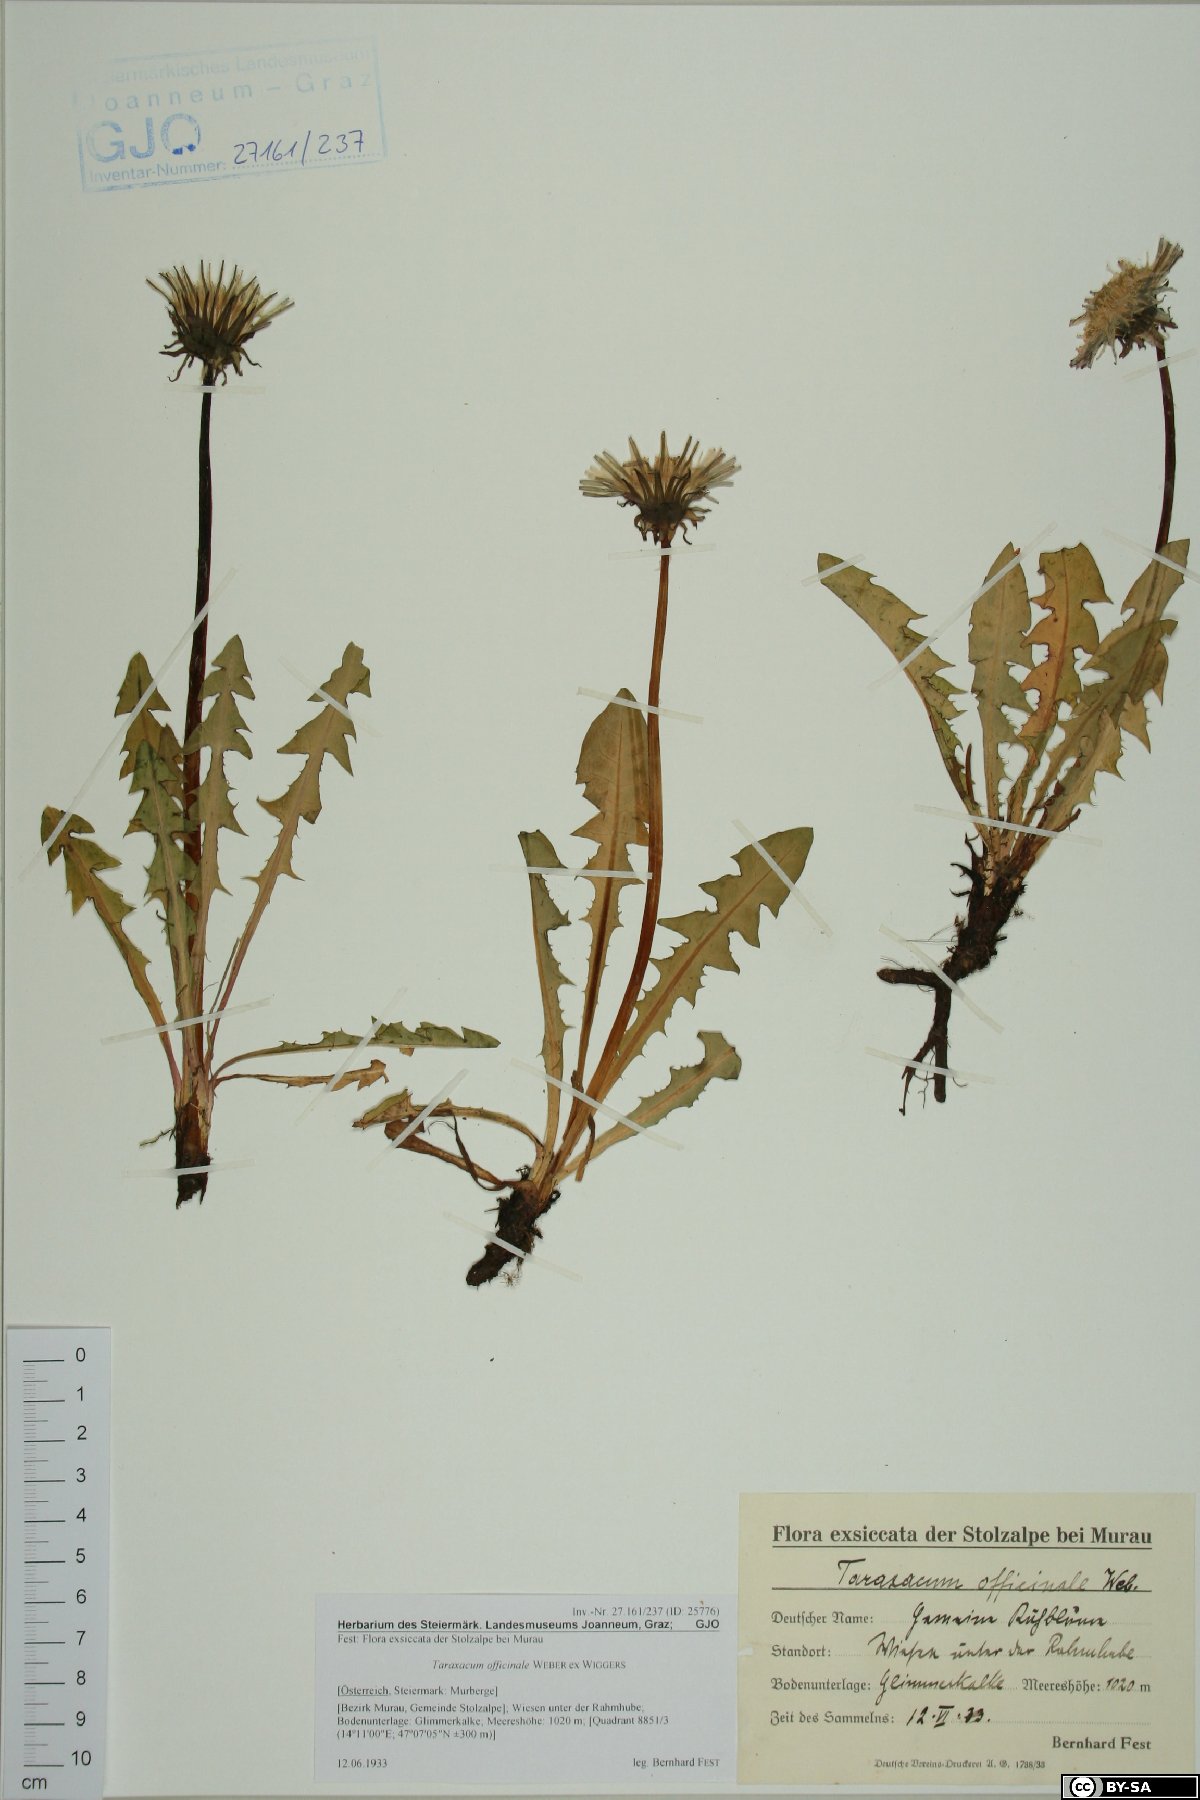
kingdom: Plantae
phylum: Tracheophyta
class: Magnoliopsida
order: Asterales
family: Asteraceae
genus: Taraxacum
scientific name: Taraxacum officinale
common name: Common dandelion
